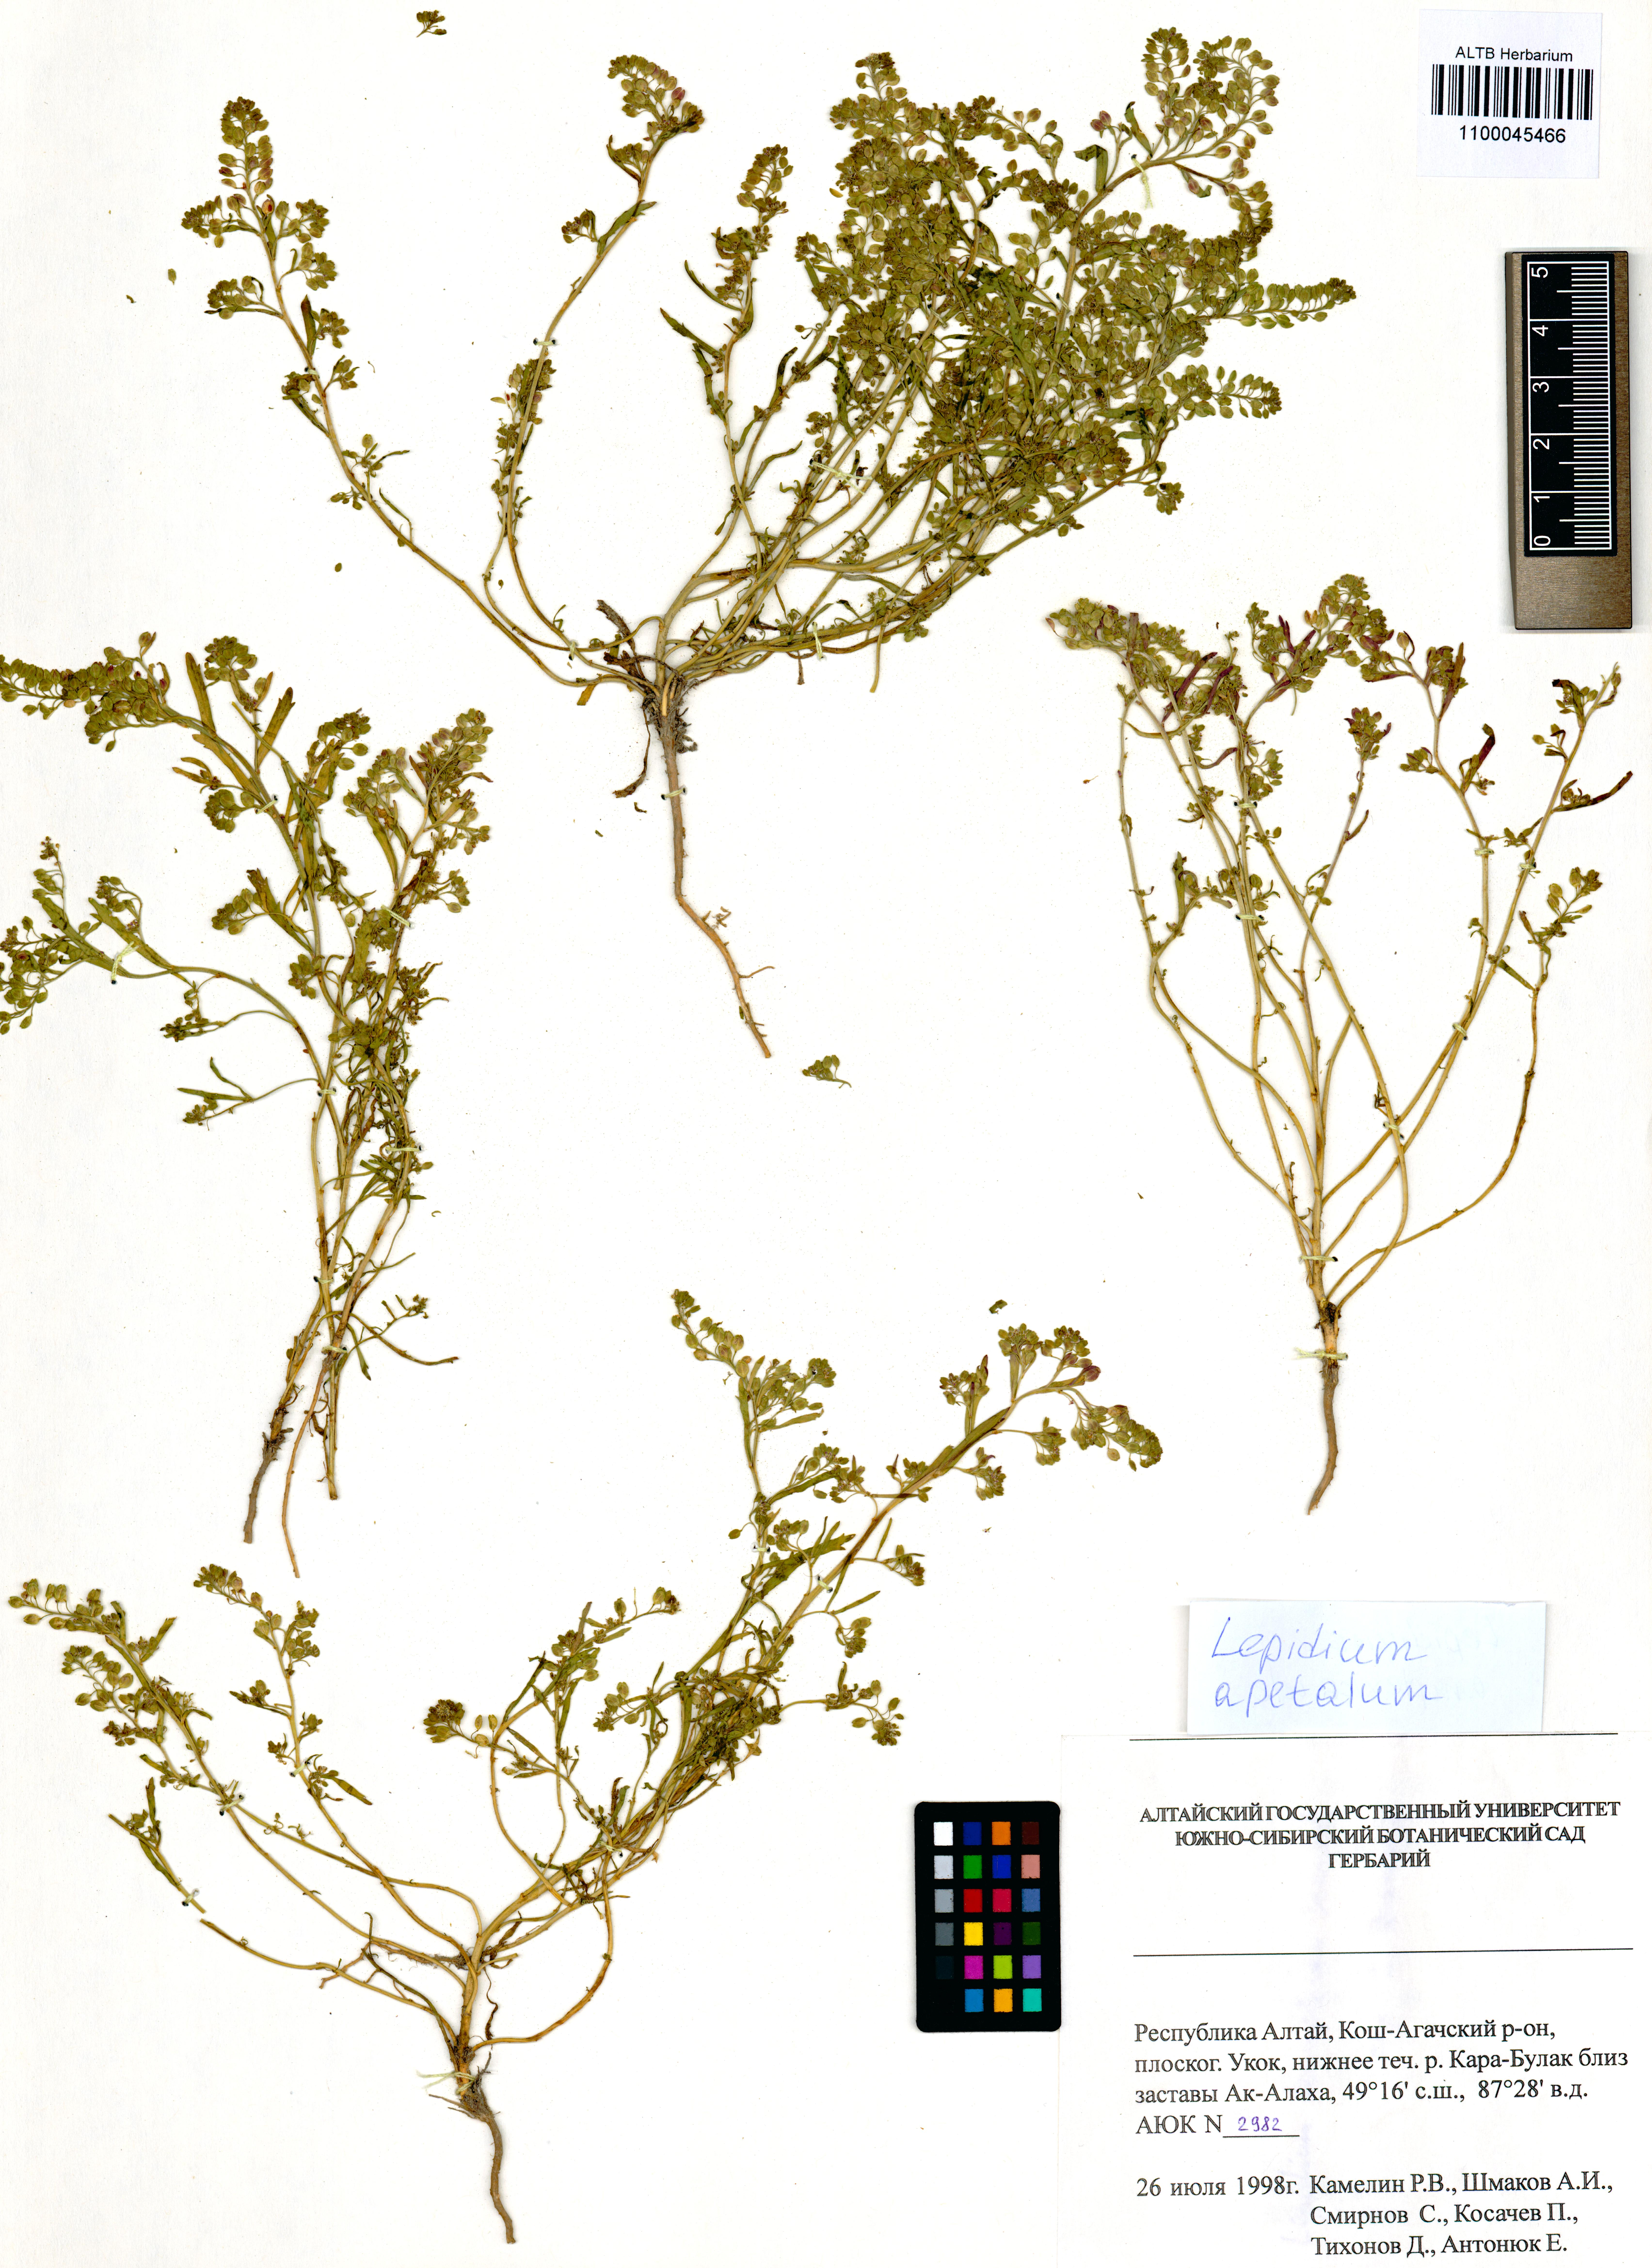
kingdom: Plantae
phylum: Tracheophyta
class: Magnoliopsida
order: Brassicales
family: Brassicaceae
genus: Lepidium
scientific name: Lepidium apetalum
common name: Pepperweed
